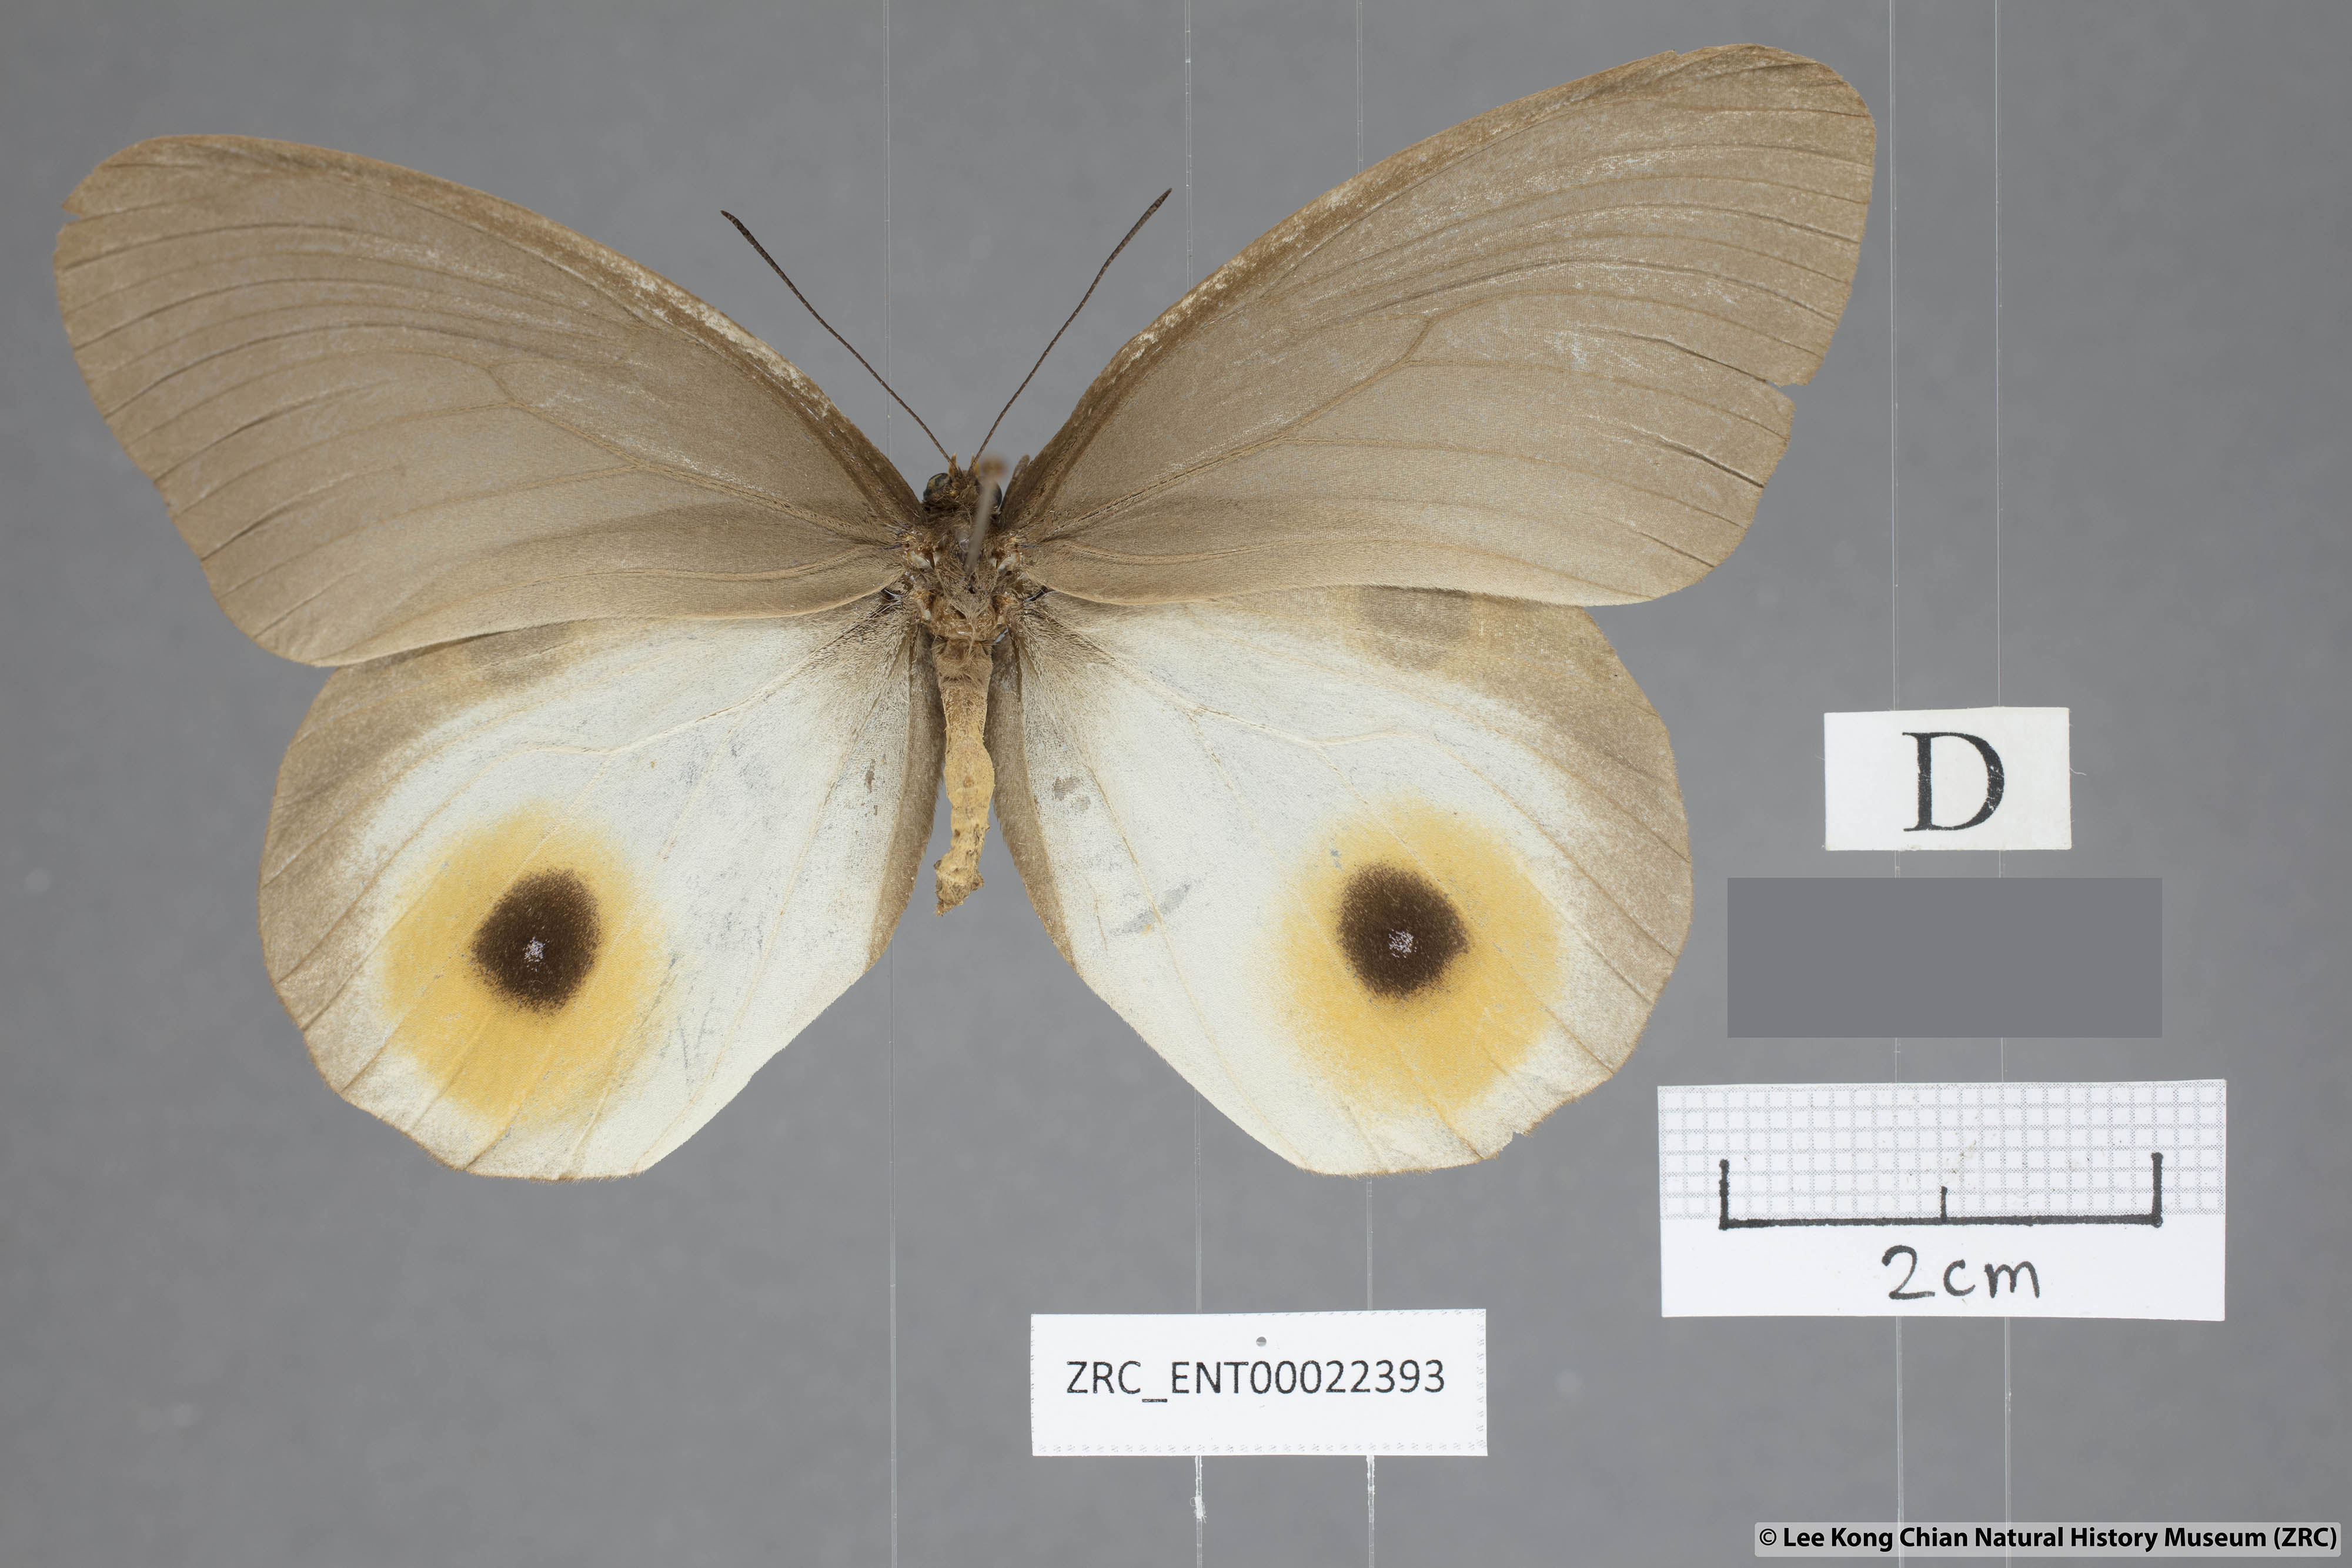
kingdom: Animalia
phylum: Arthropoda
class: Insecta
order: Lepidoptera
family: Nymphalidae
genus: Taenaris
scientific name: Taenaris horsfieldii
